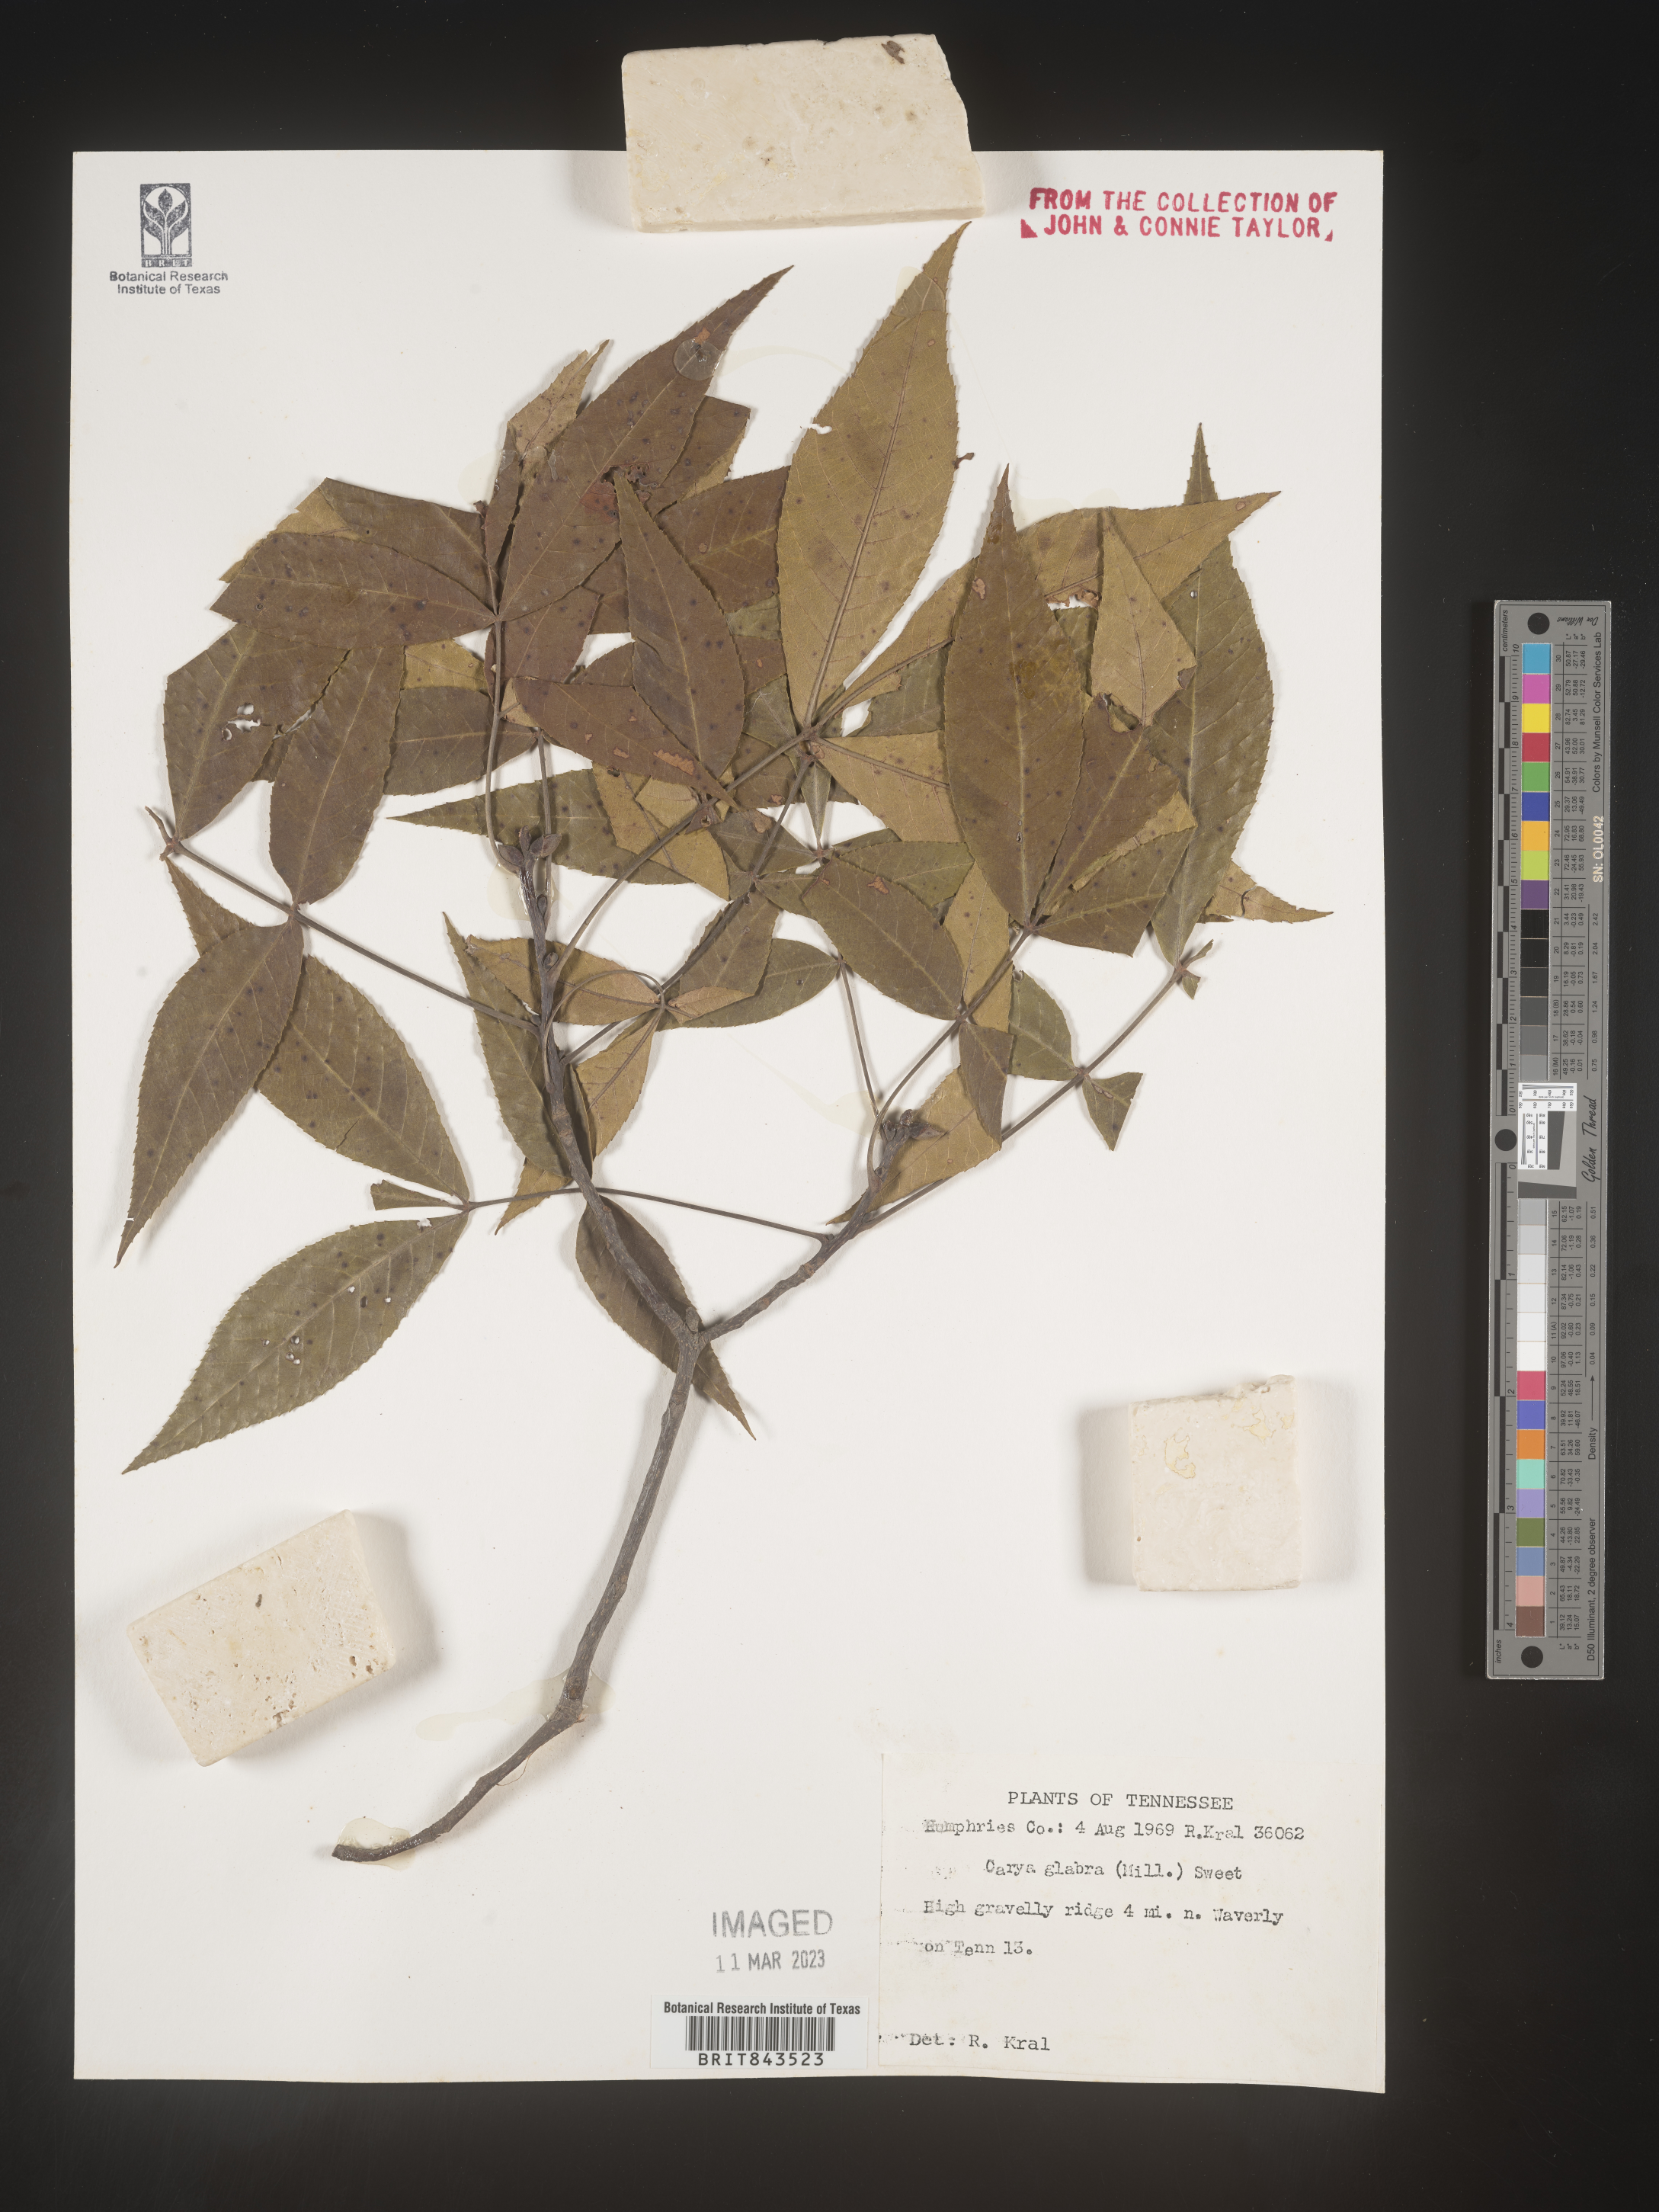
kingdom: Plantae
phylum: Tracheophyta
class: Magnoliopsida
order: Fagales
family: Juglandaceae
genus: Carya
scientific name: Carya glabra
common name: Pignut hickory
